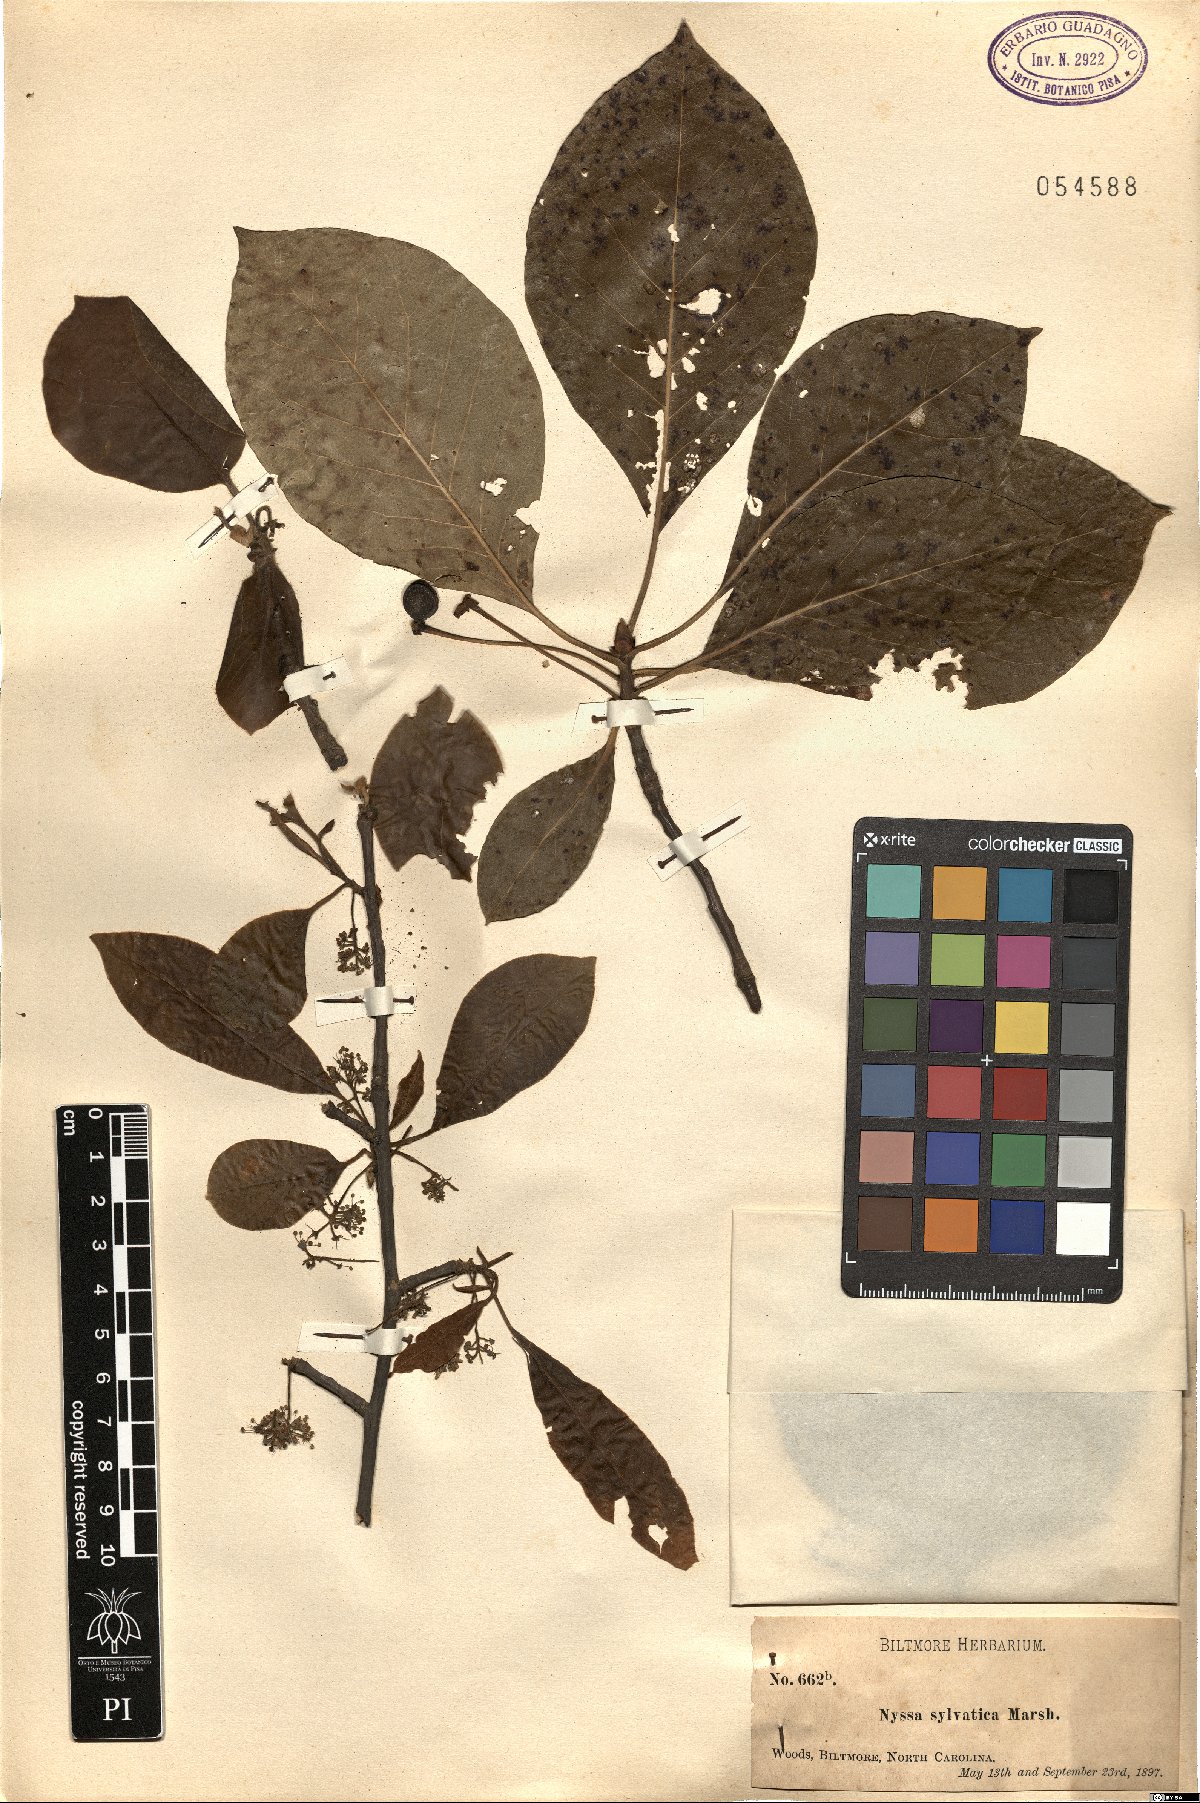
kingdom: Plantae
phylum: Tracheophyta
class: Magnoliopsida
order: Cornales
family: Nyssaceae
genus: Nyssa
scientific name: Nyssa sylvatica
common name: Black tupelo
